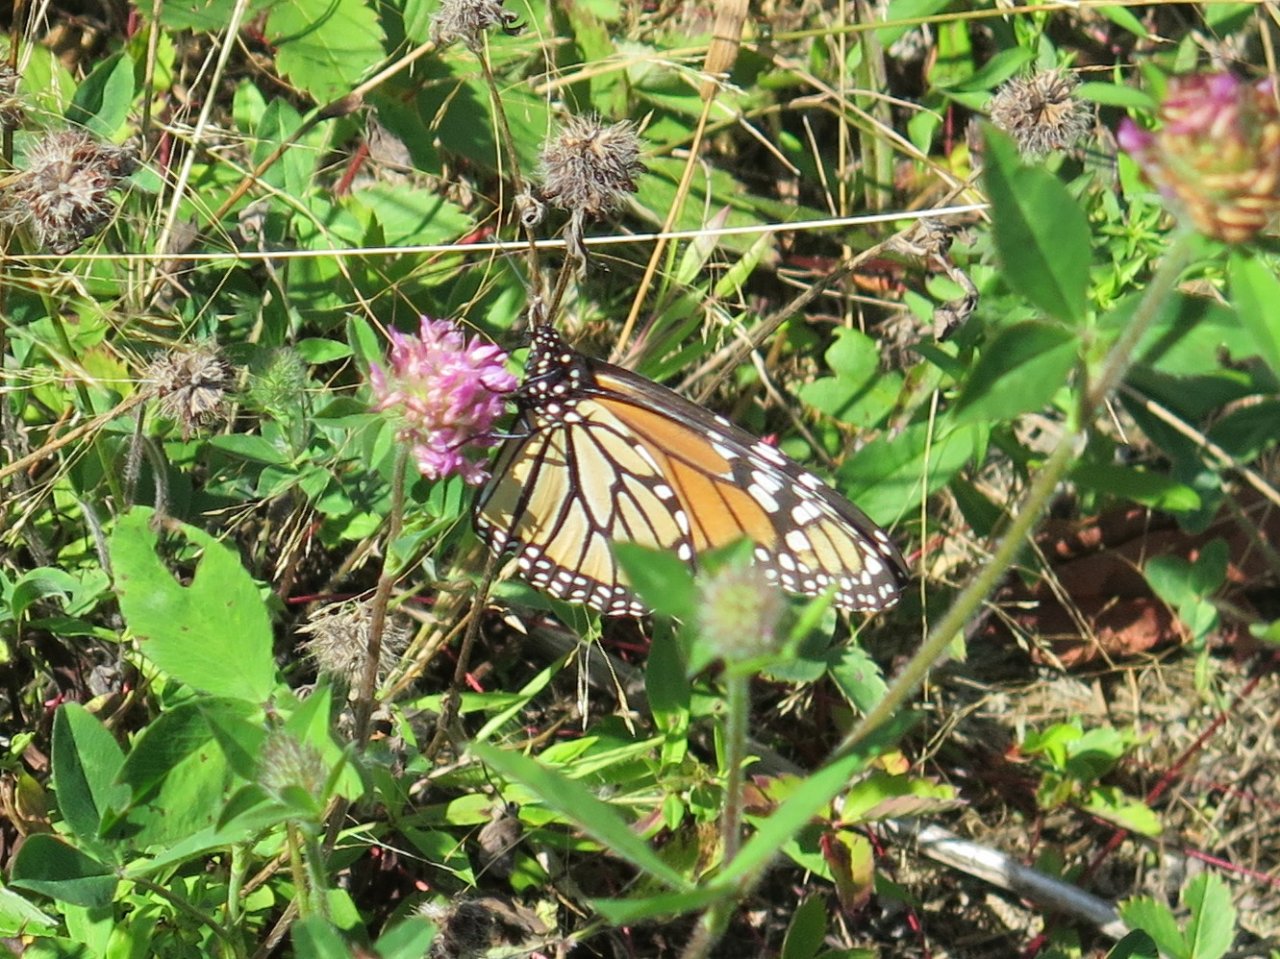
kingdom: Animalia
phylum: Arthropoda
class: Insecta
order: Lepidoptera
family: Nymphalidae
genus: Danaus
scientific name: Danaus plexippus
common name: Monarch
